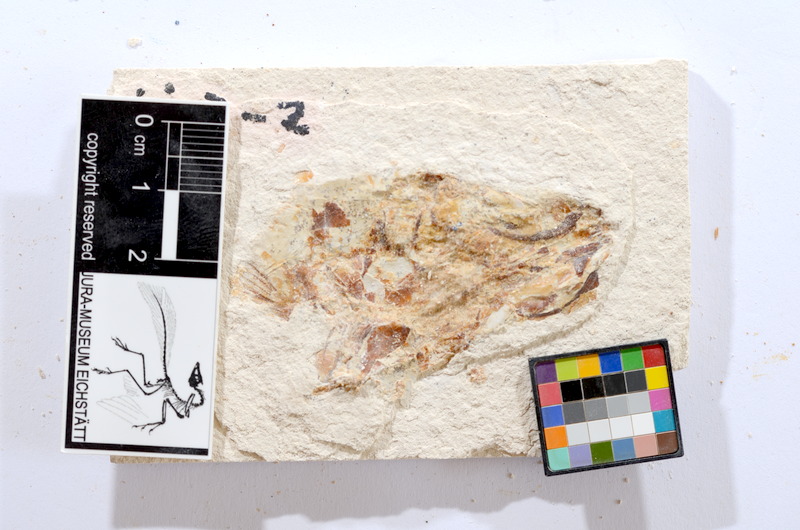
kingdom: Animalia
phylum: Chordata
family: Ascalaboidae
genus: Tharsis
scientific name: Tharsis dubius
